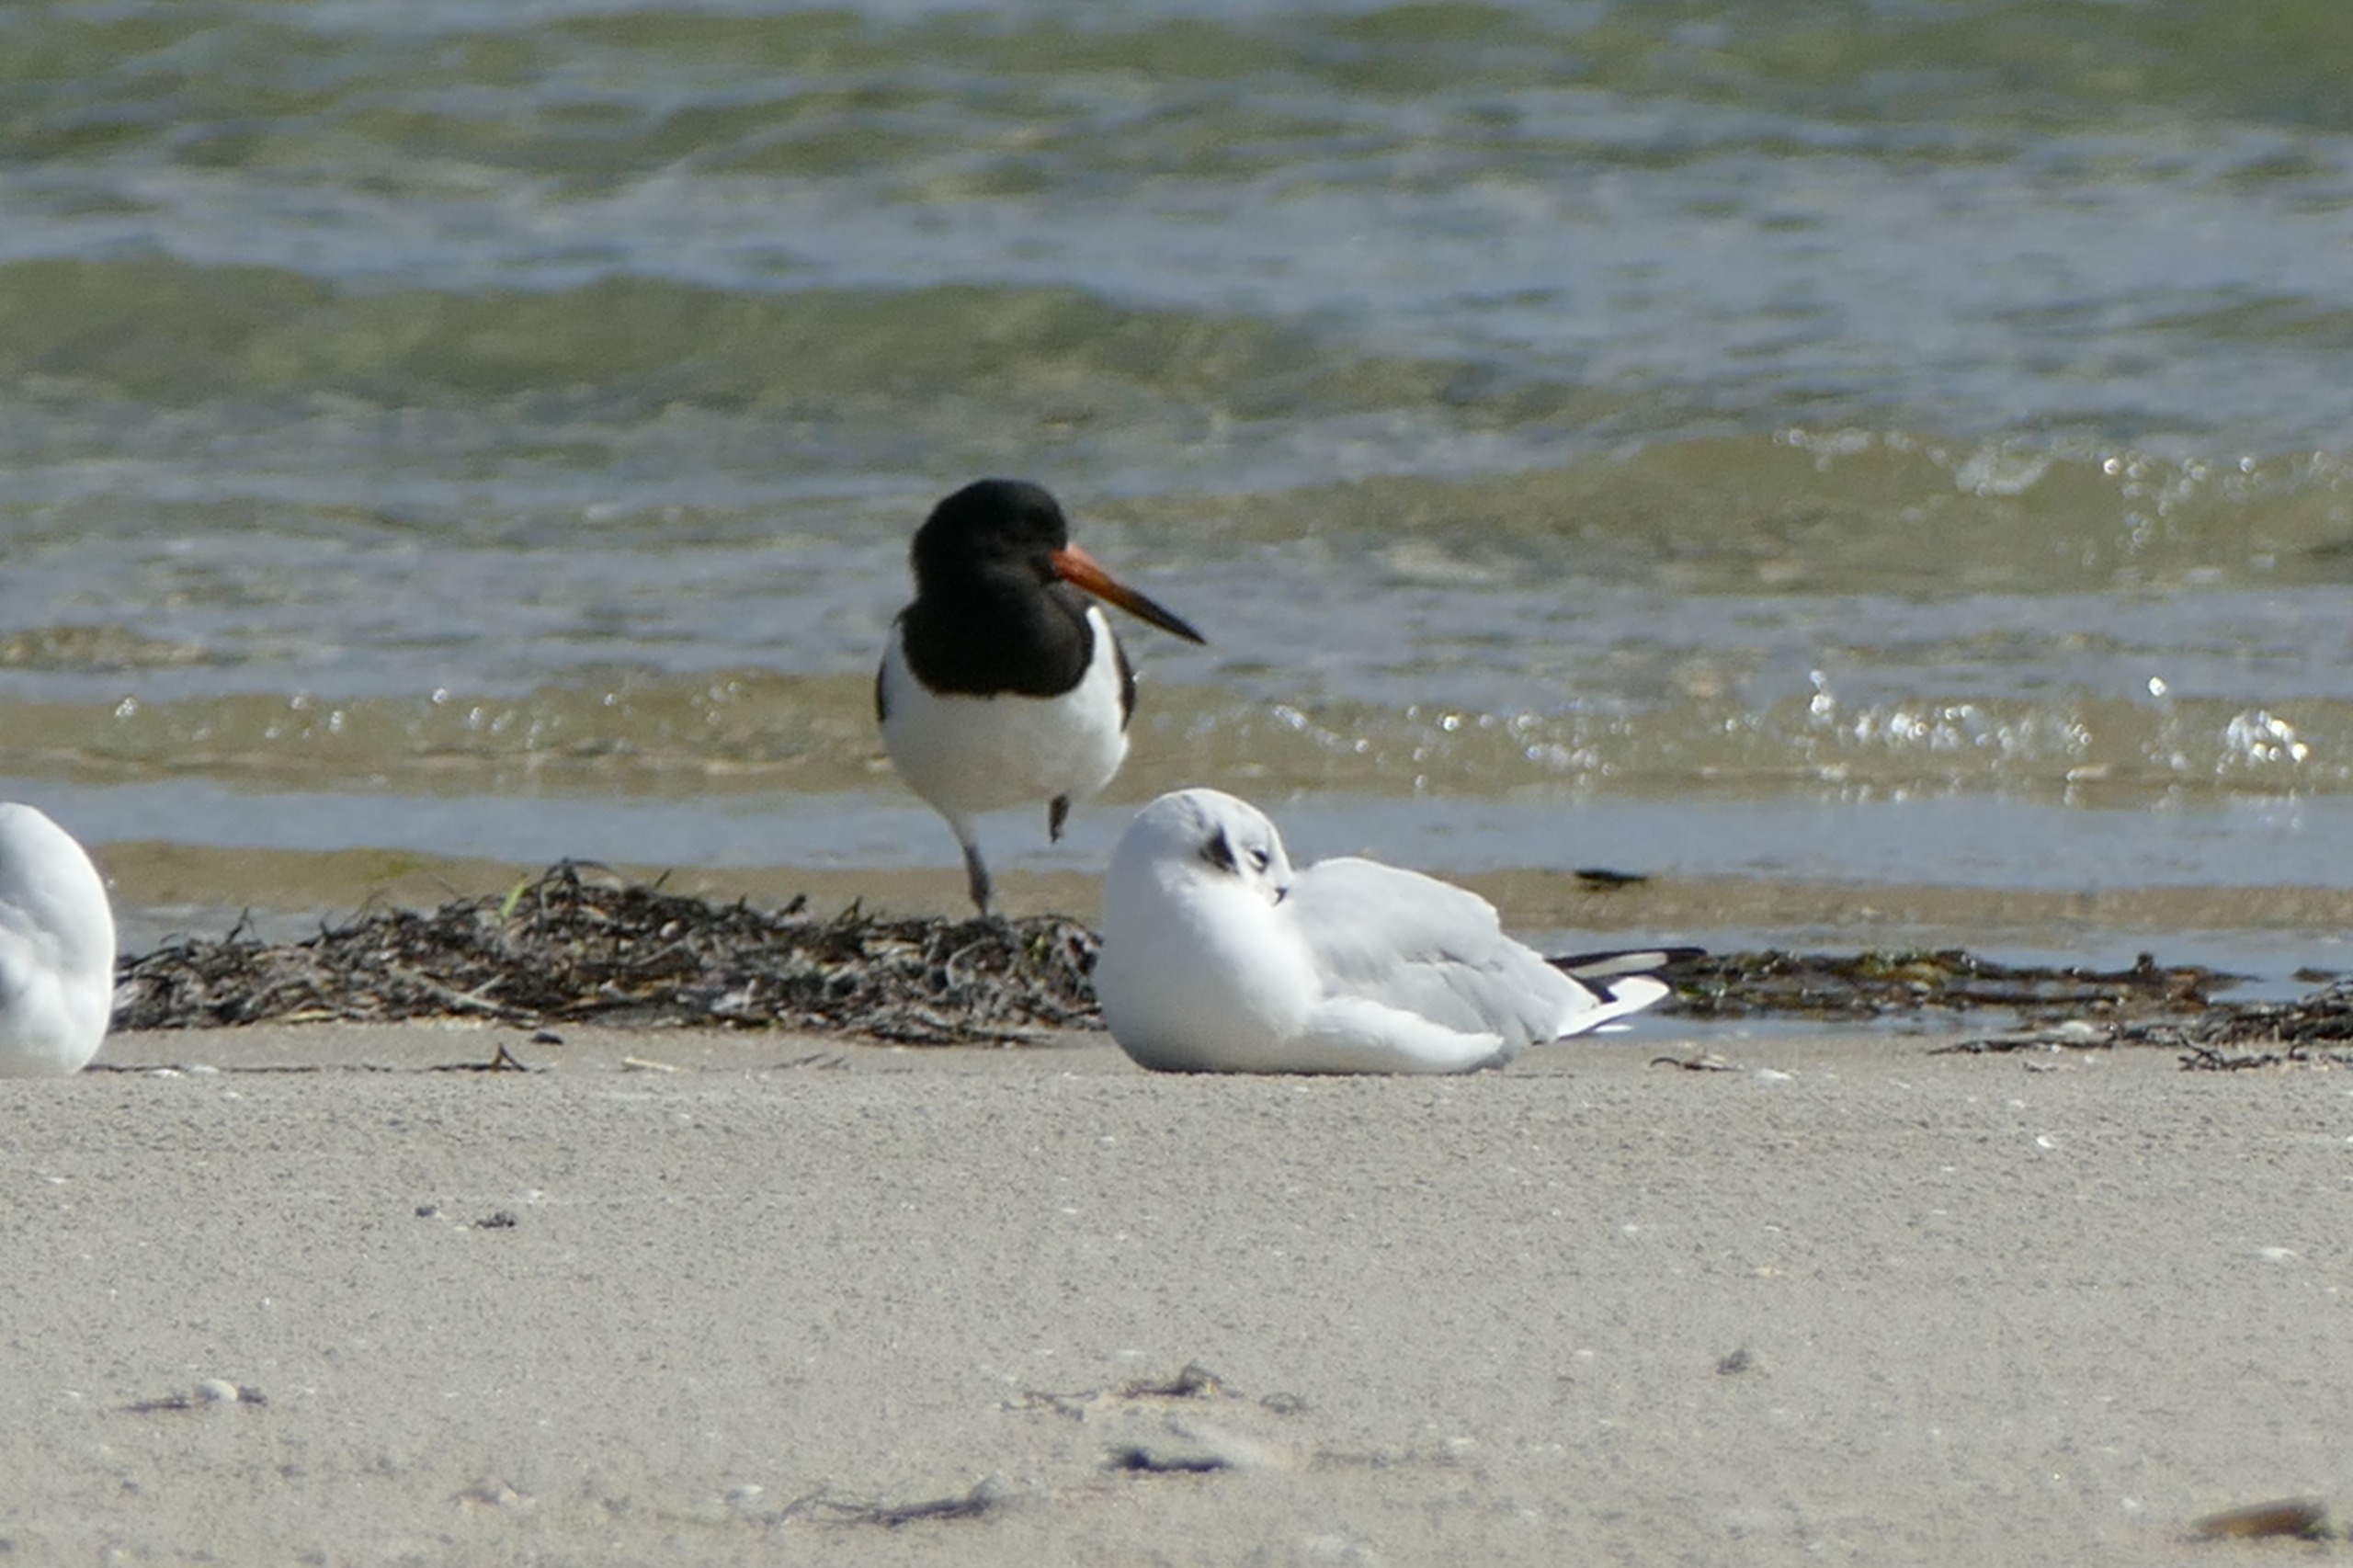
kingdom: Animalia
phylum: Chordata
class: Aves
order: Charadriiformes
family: Haematopodidae
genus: Haematopus
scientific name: Haematopus ostralegus
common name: Strandskade
